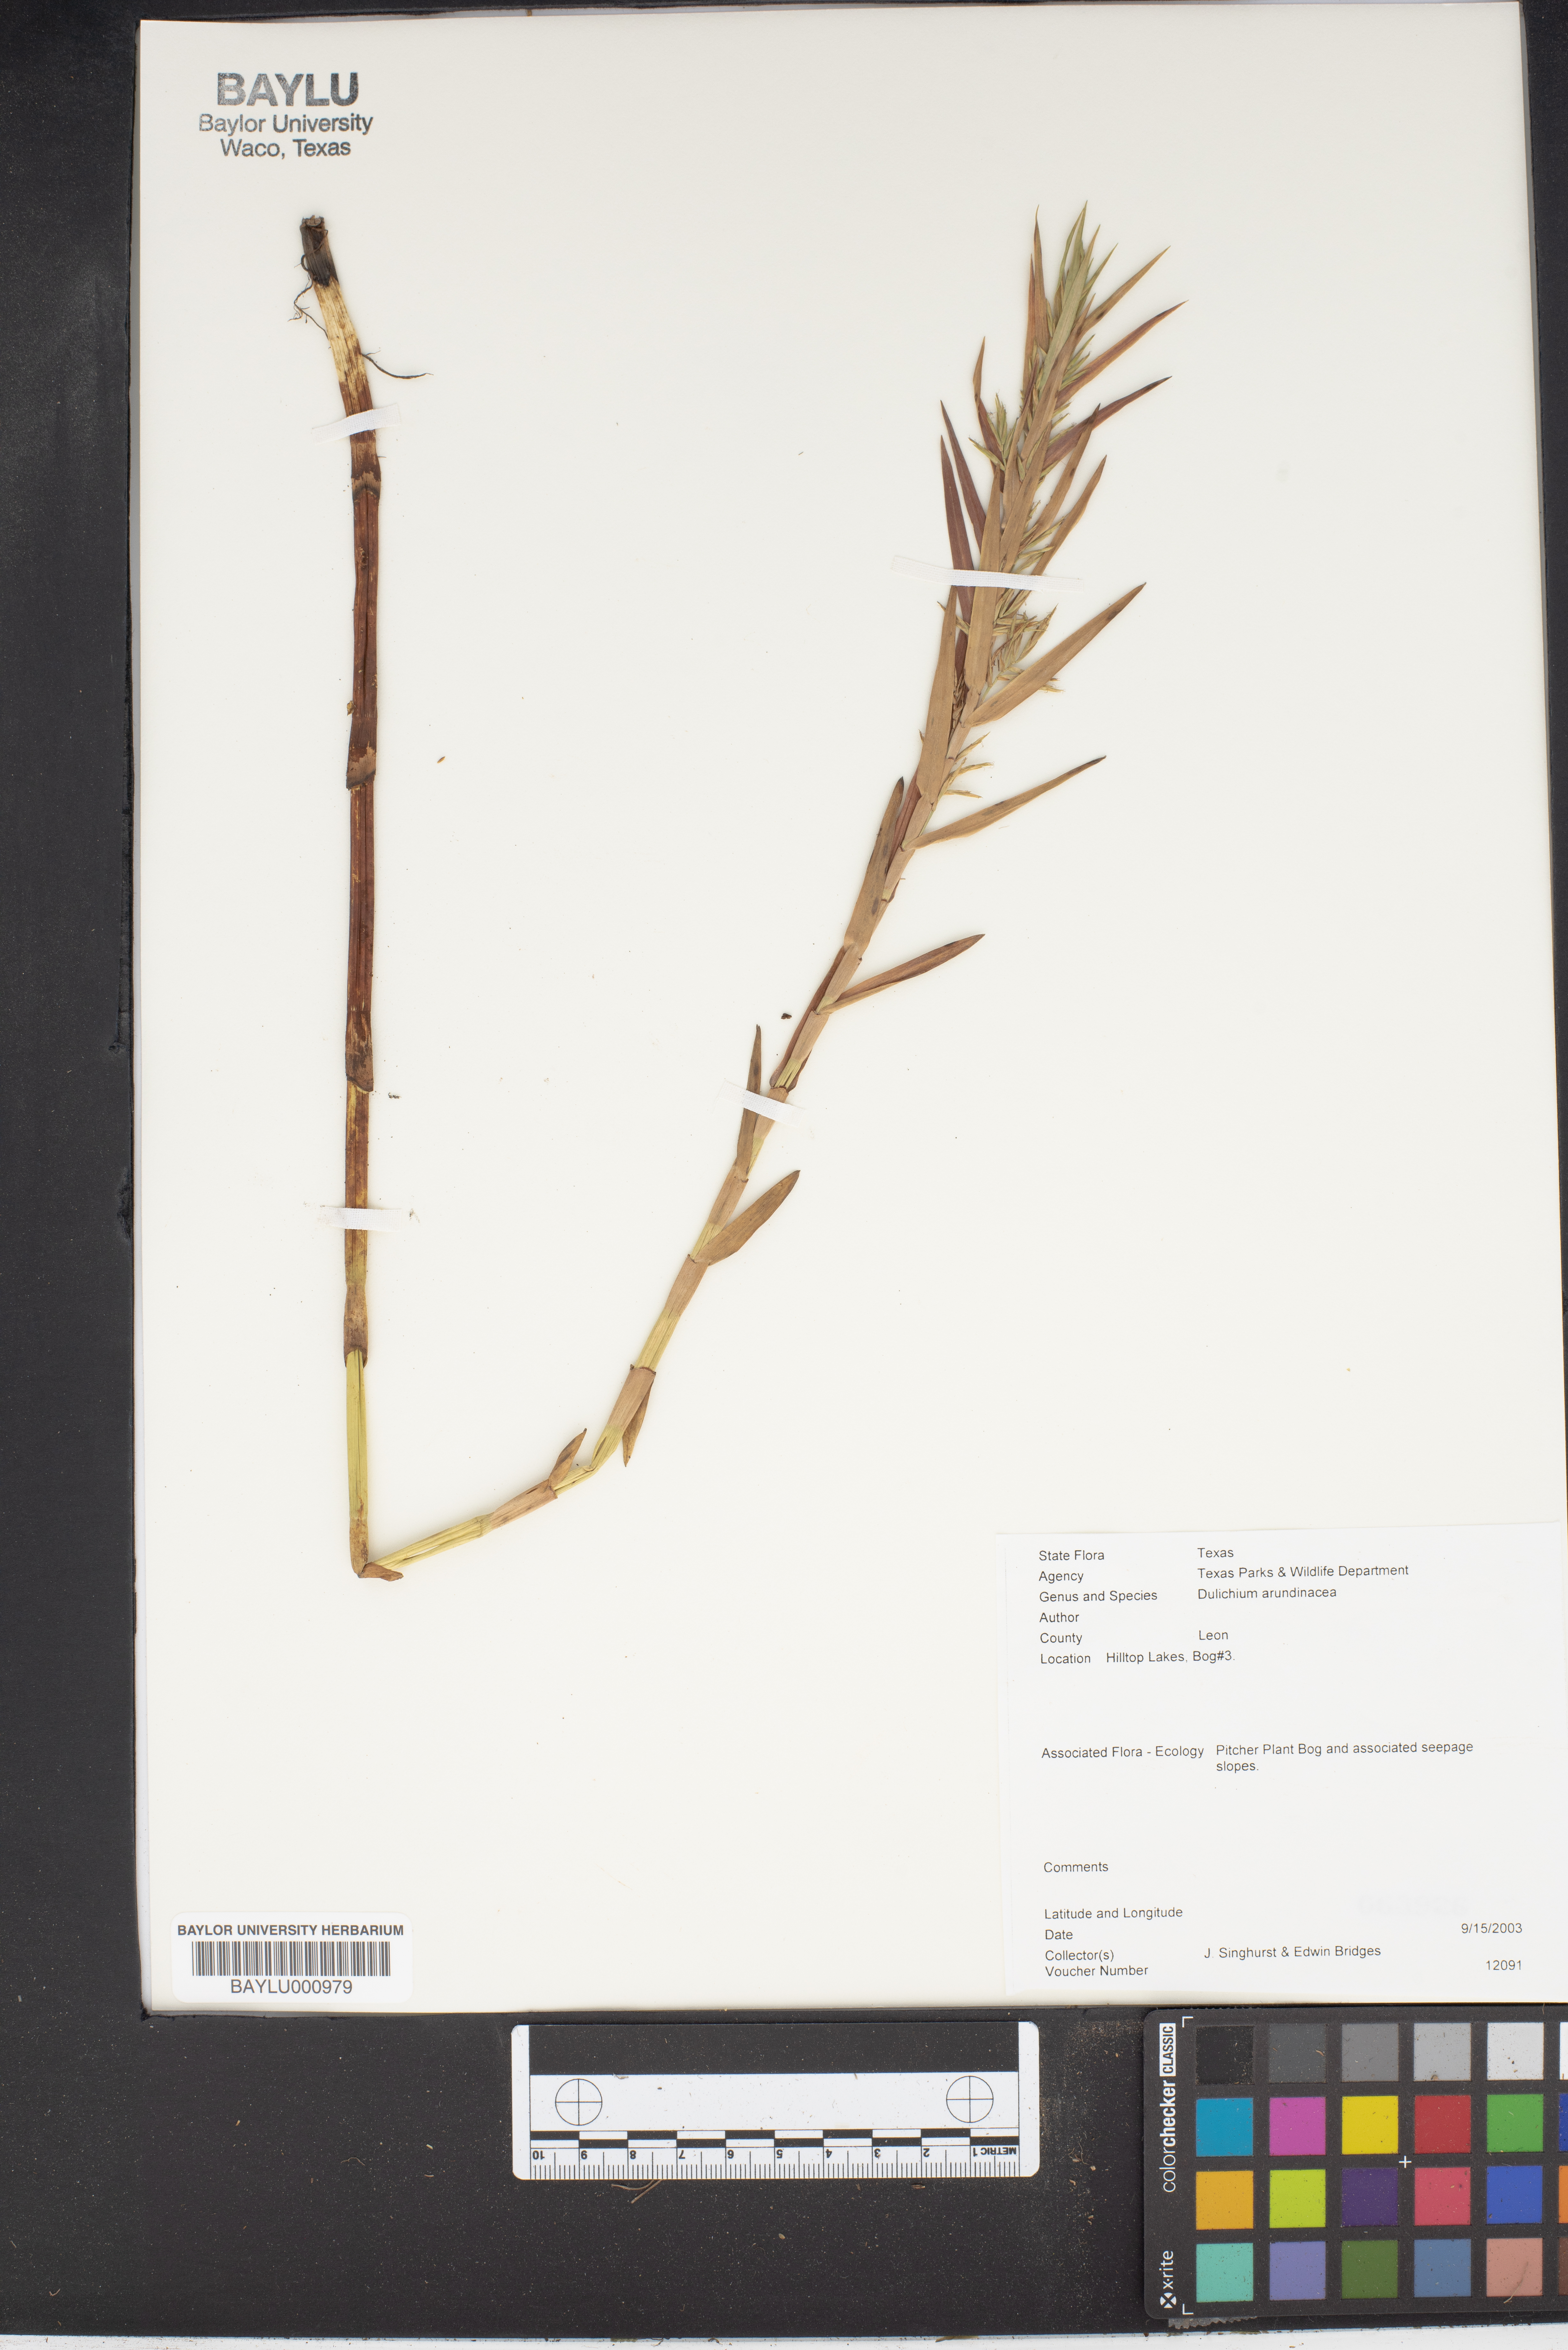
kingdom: Plantae
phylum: Tracheophyta
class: Liliopsida
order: Poales
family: Cyperaceae
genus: Dulichium
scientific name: Dulichium arundinaceum
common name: Three-way sedge
